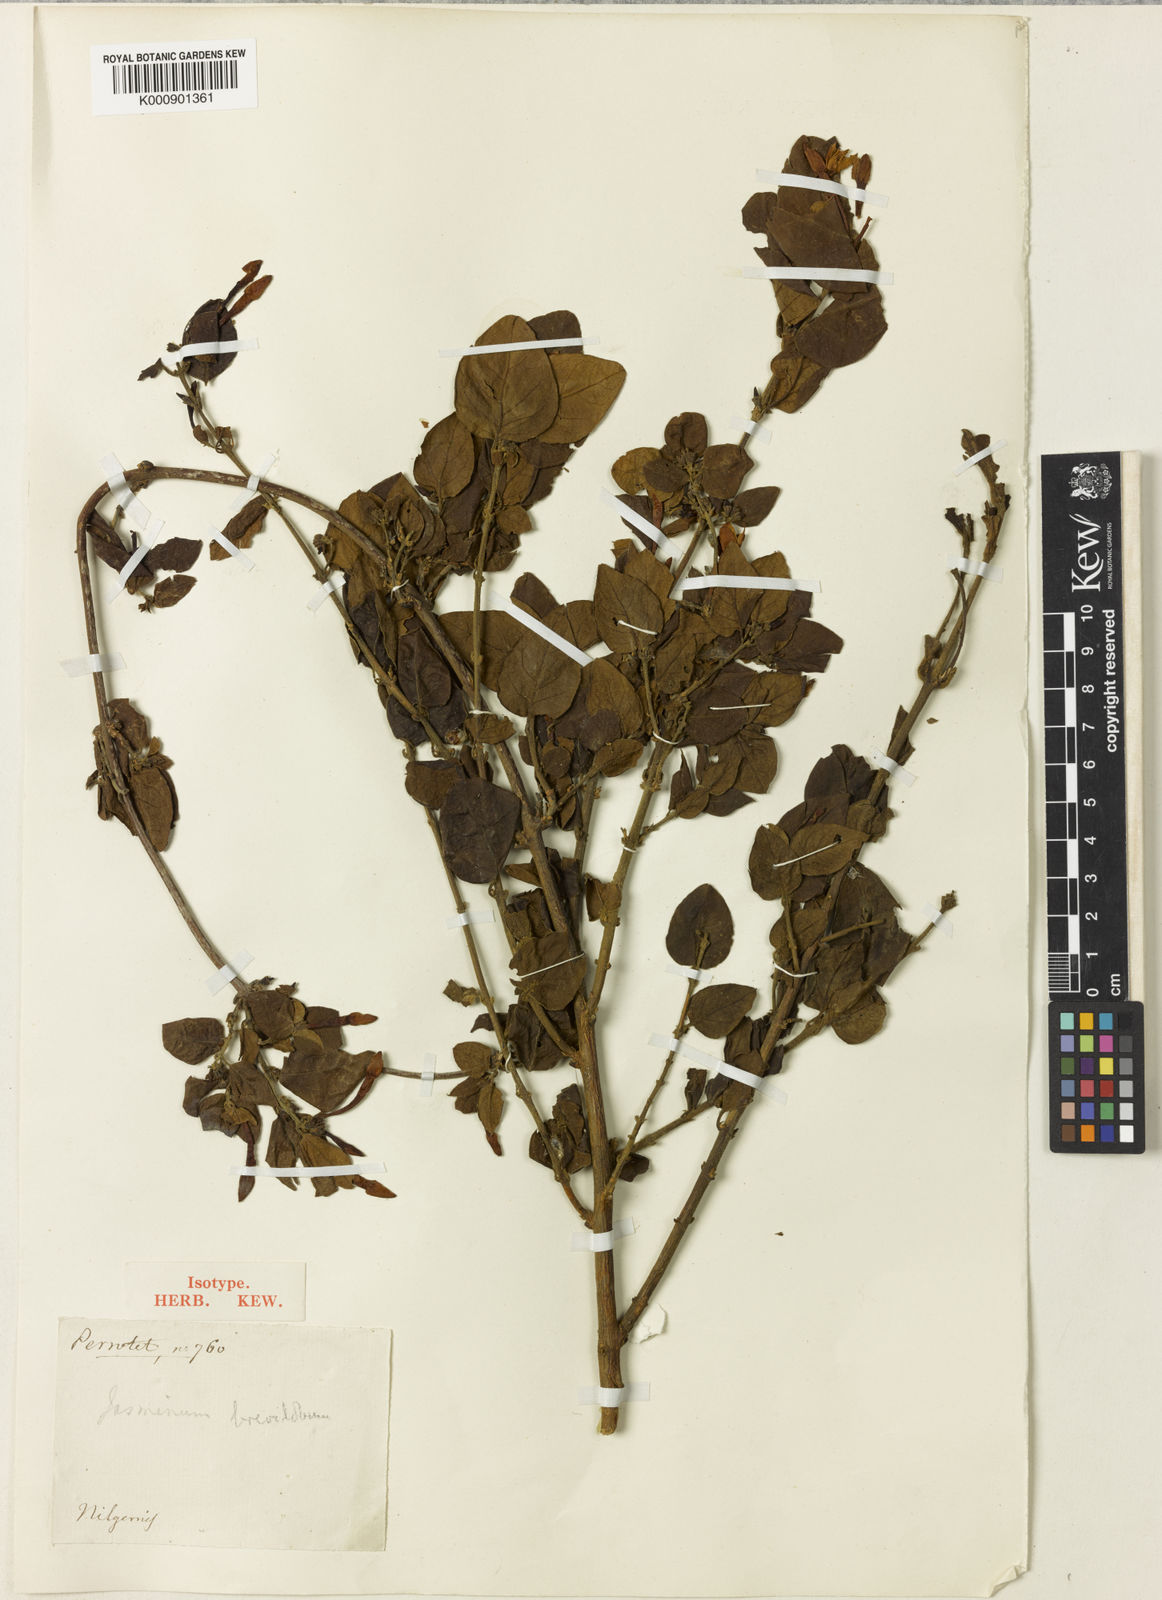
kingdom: Plantae
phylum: Tracheophyta
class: Magnoliopsida
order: Lamiales
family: Oleaceae
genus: Jasminum
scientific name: Jasminum brevilobum
